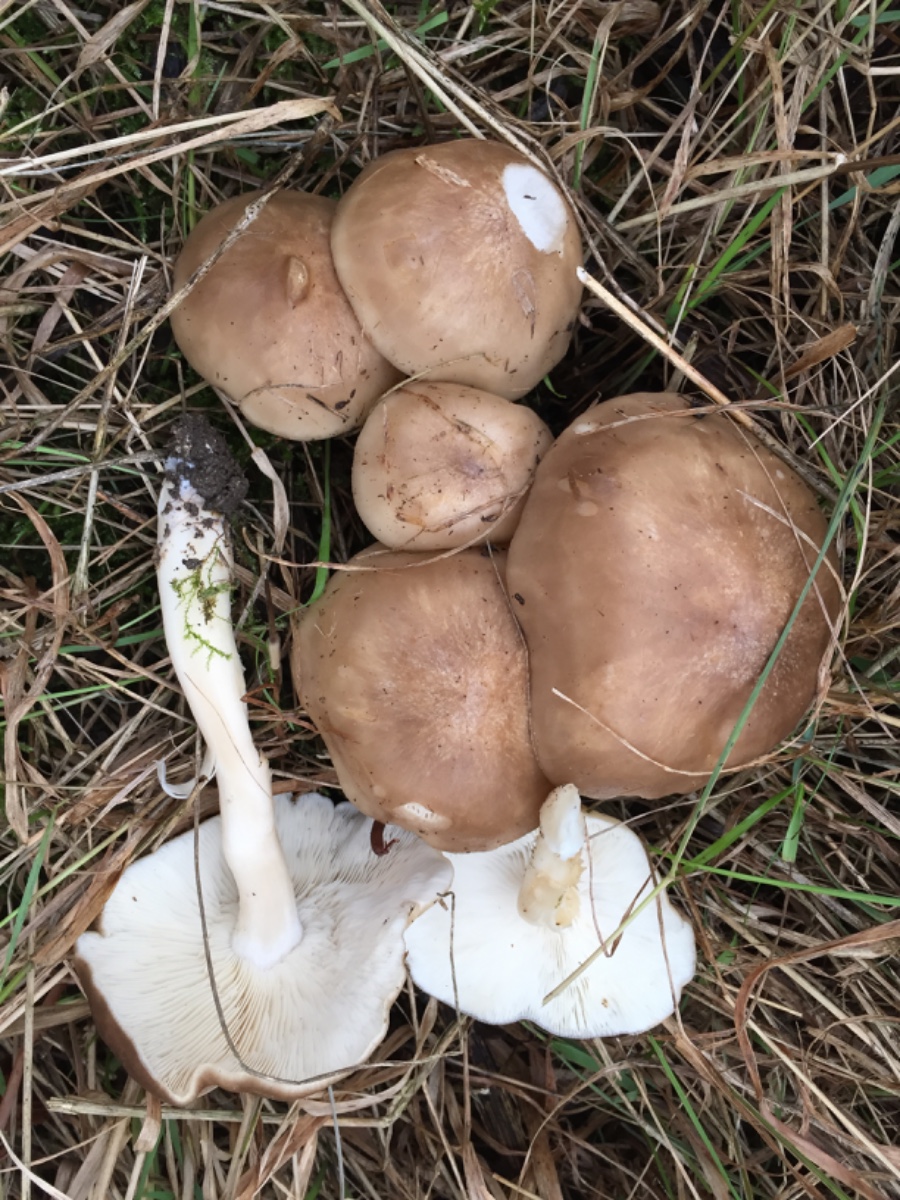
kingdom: Fungi
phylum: Basidiomycota
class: Agaricomycetes
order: Agaricales
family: Lyophyllaceae
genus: Lyophyllum
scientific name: Lyophyllum decastes
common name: Clustered domecap
